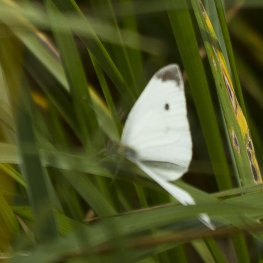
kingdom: Animalia
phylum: Arthropoda
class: Insecta
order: Lepidoptera
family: Pieridae
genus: Pieris
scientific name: Pieris rapae
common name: Cabbage White
